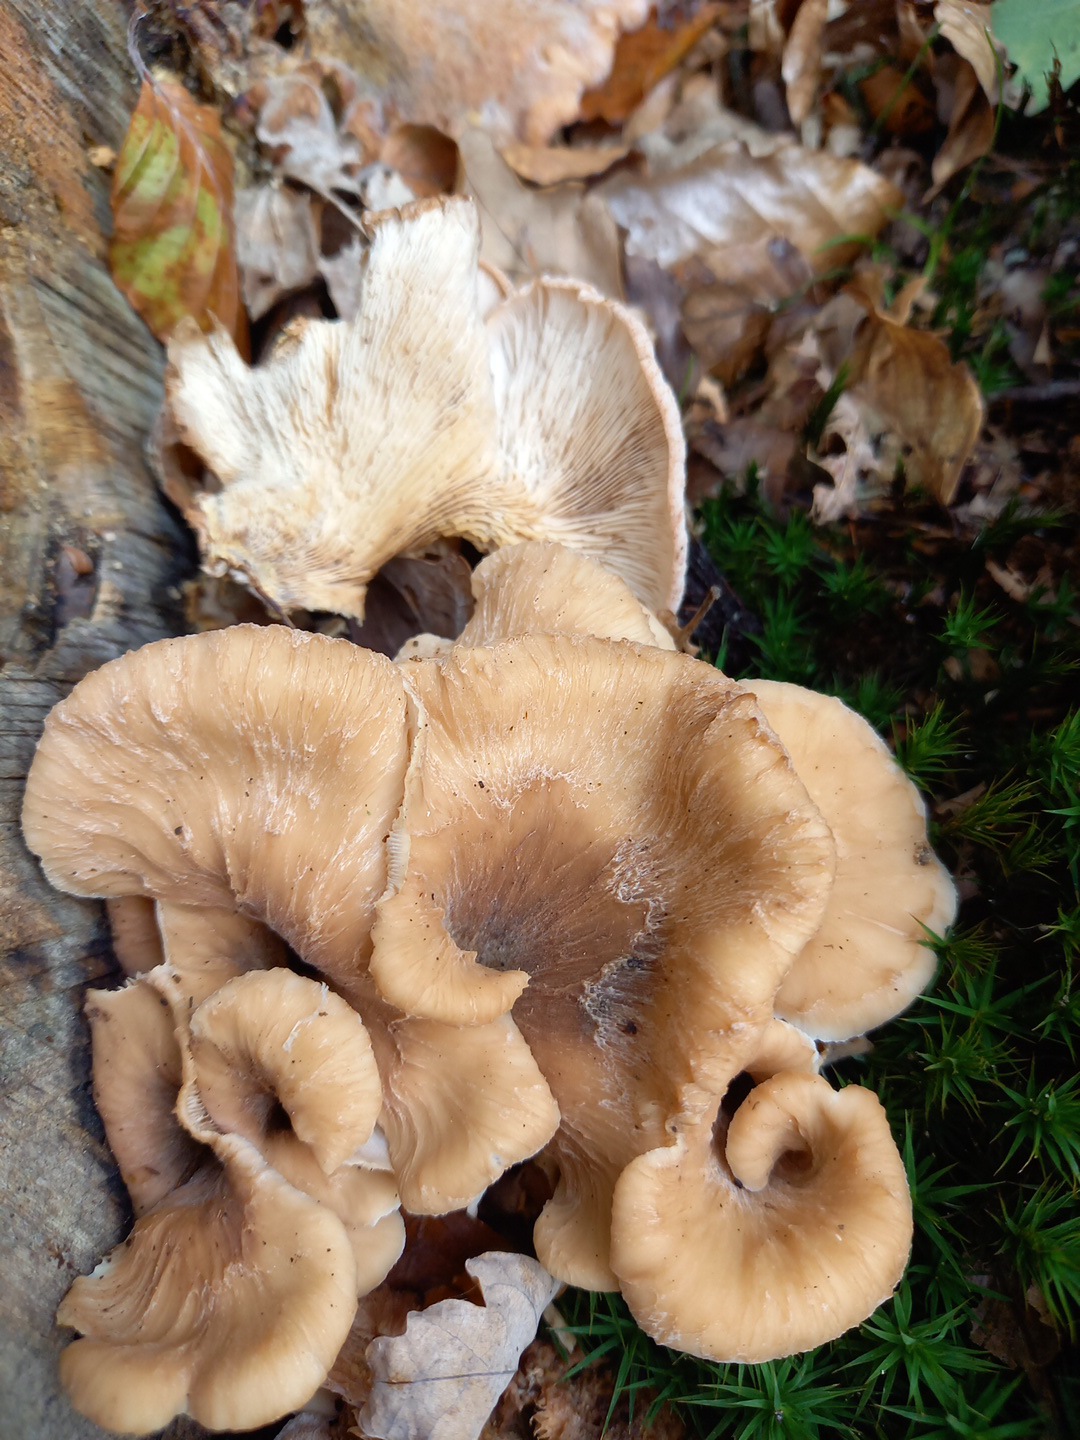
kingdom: Fungi
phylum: Basidiomycota
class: Agaricomycetes
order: Russulales
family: Auriscalpiaceae
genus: Lentinellus
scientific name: Lentinellus cochleatus
